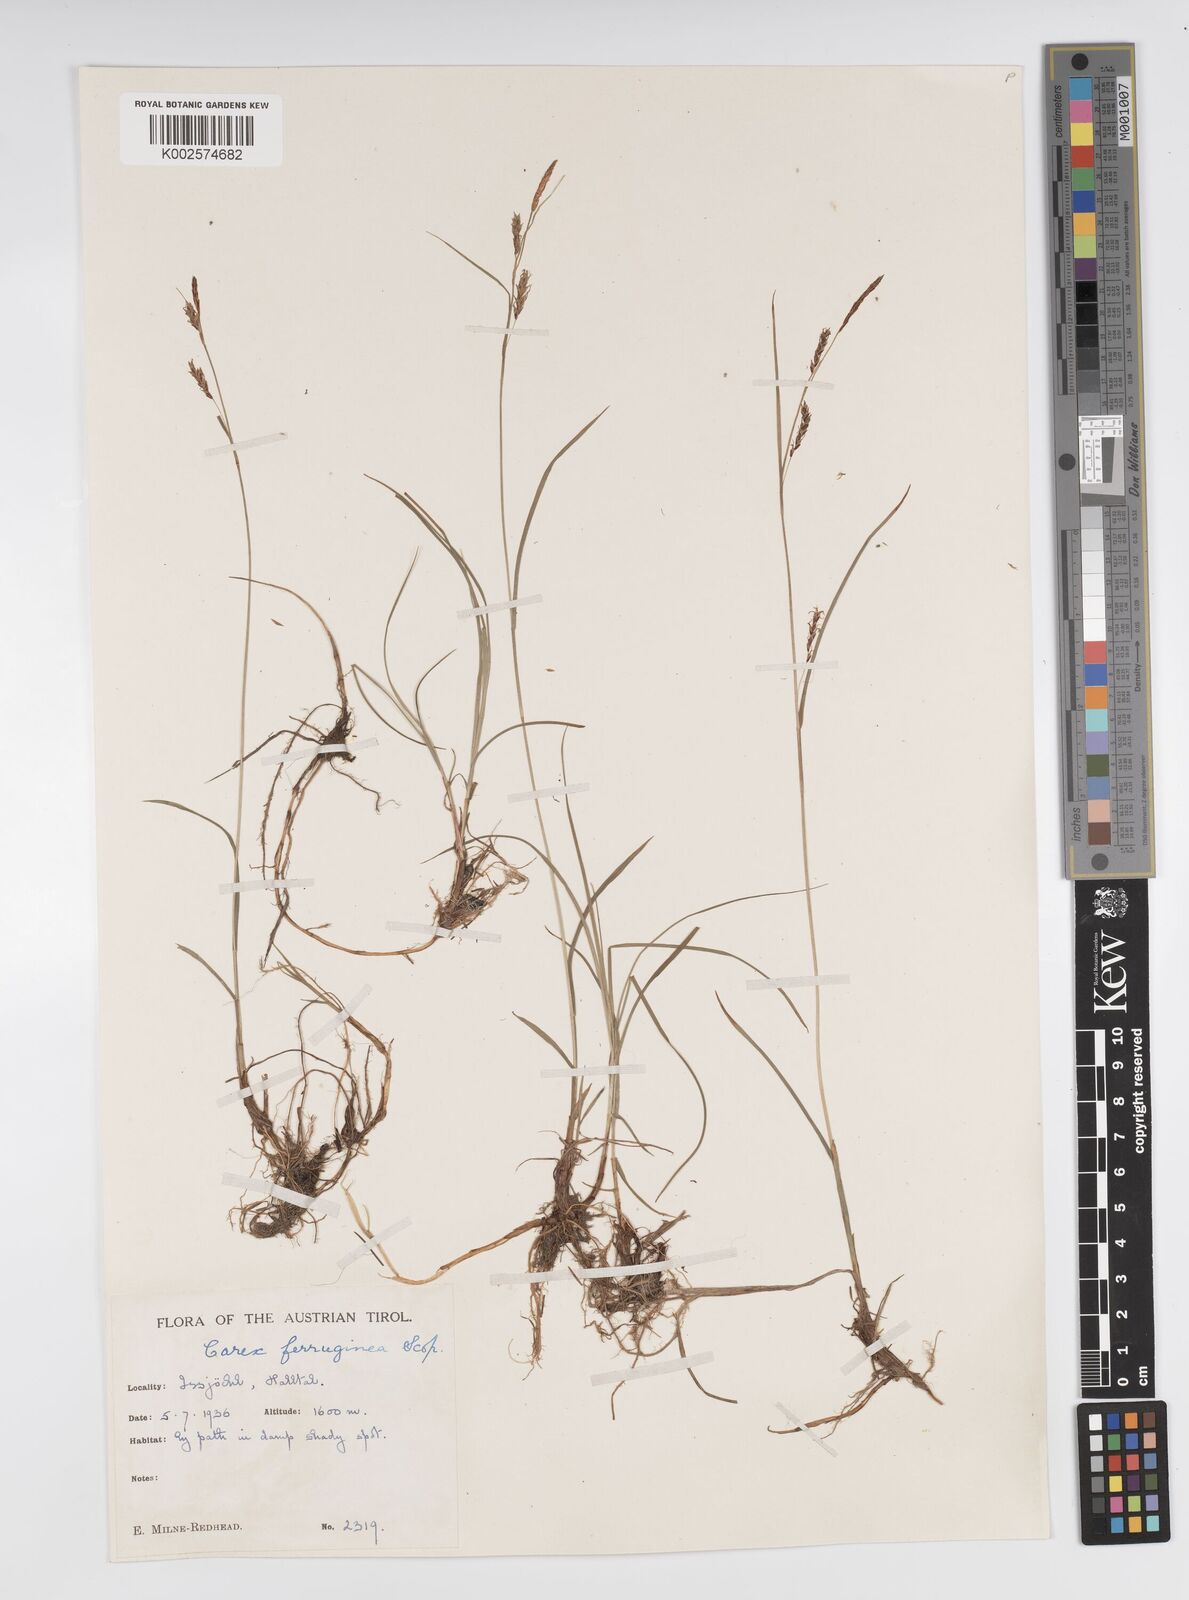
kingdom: Plantae
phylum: Tracheophyta
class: Liliopsida
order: Poales
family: Cyperaceae
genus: Carex
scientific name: Carex ferruginea
